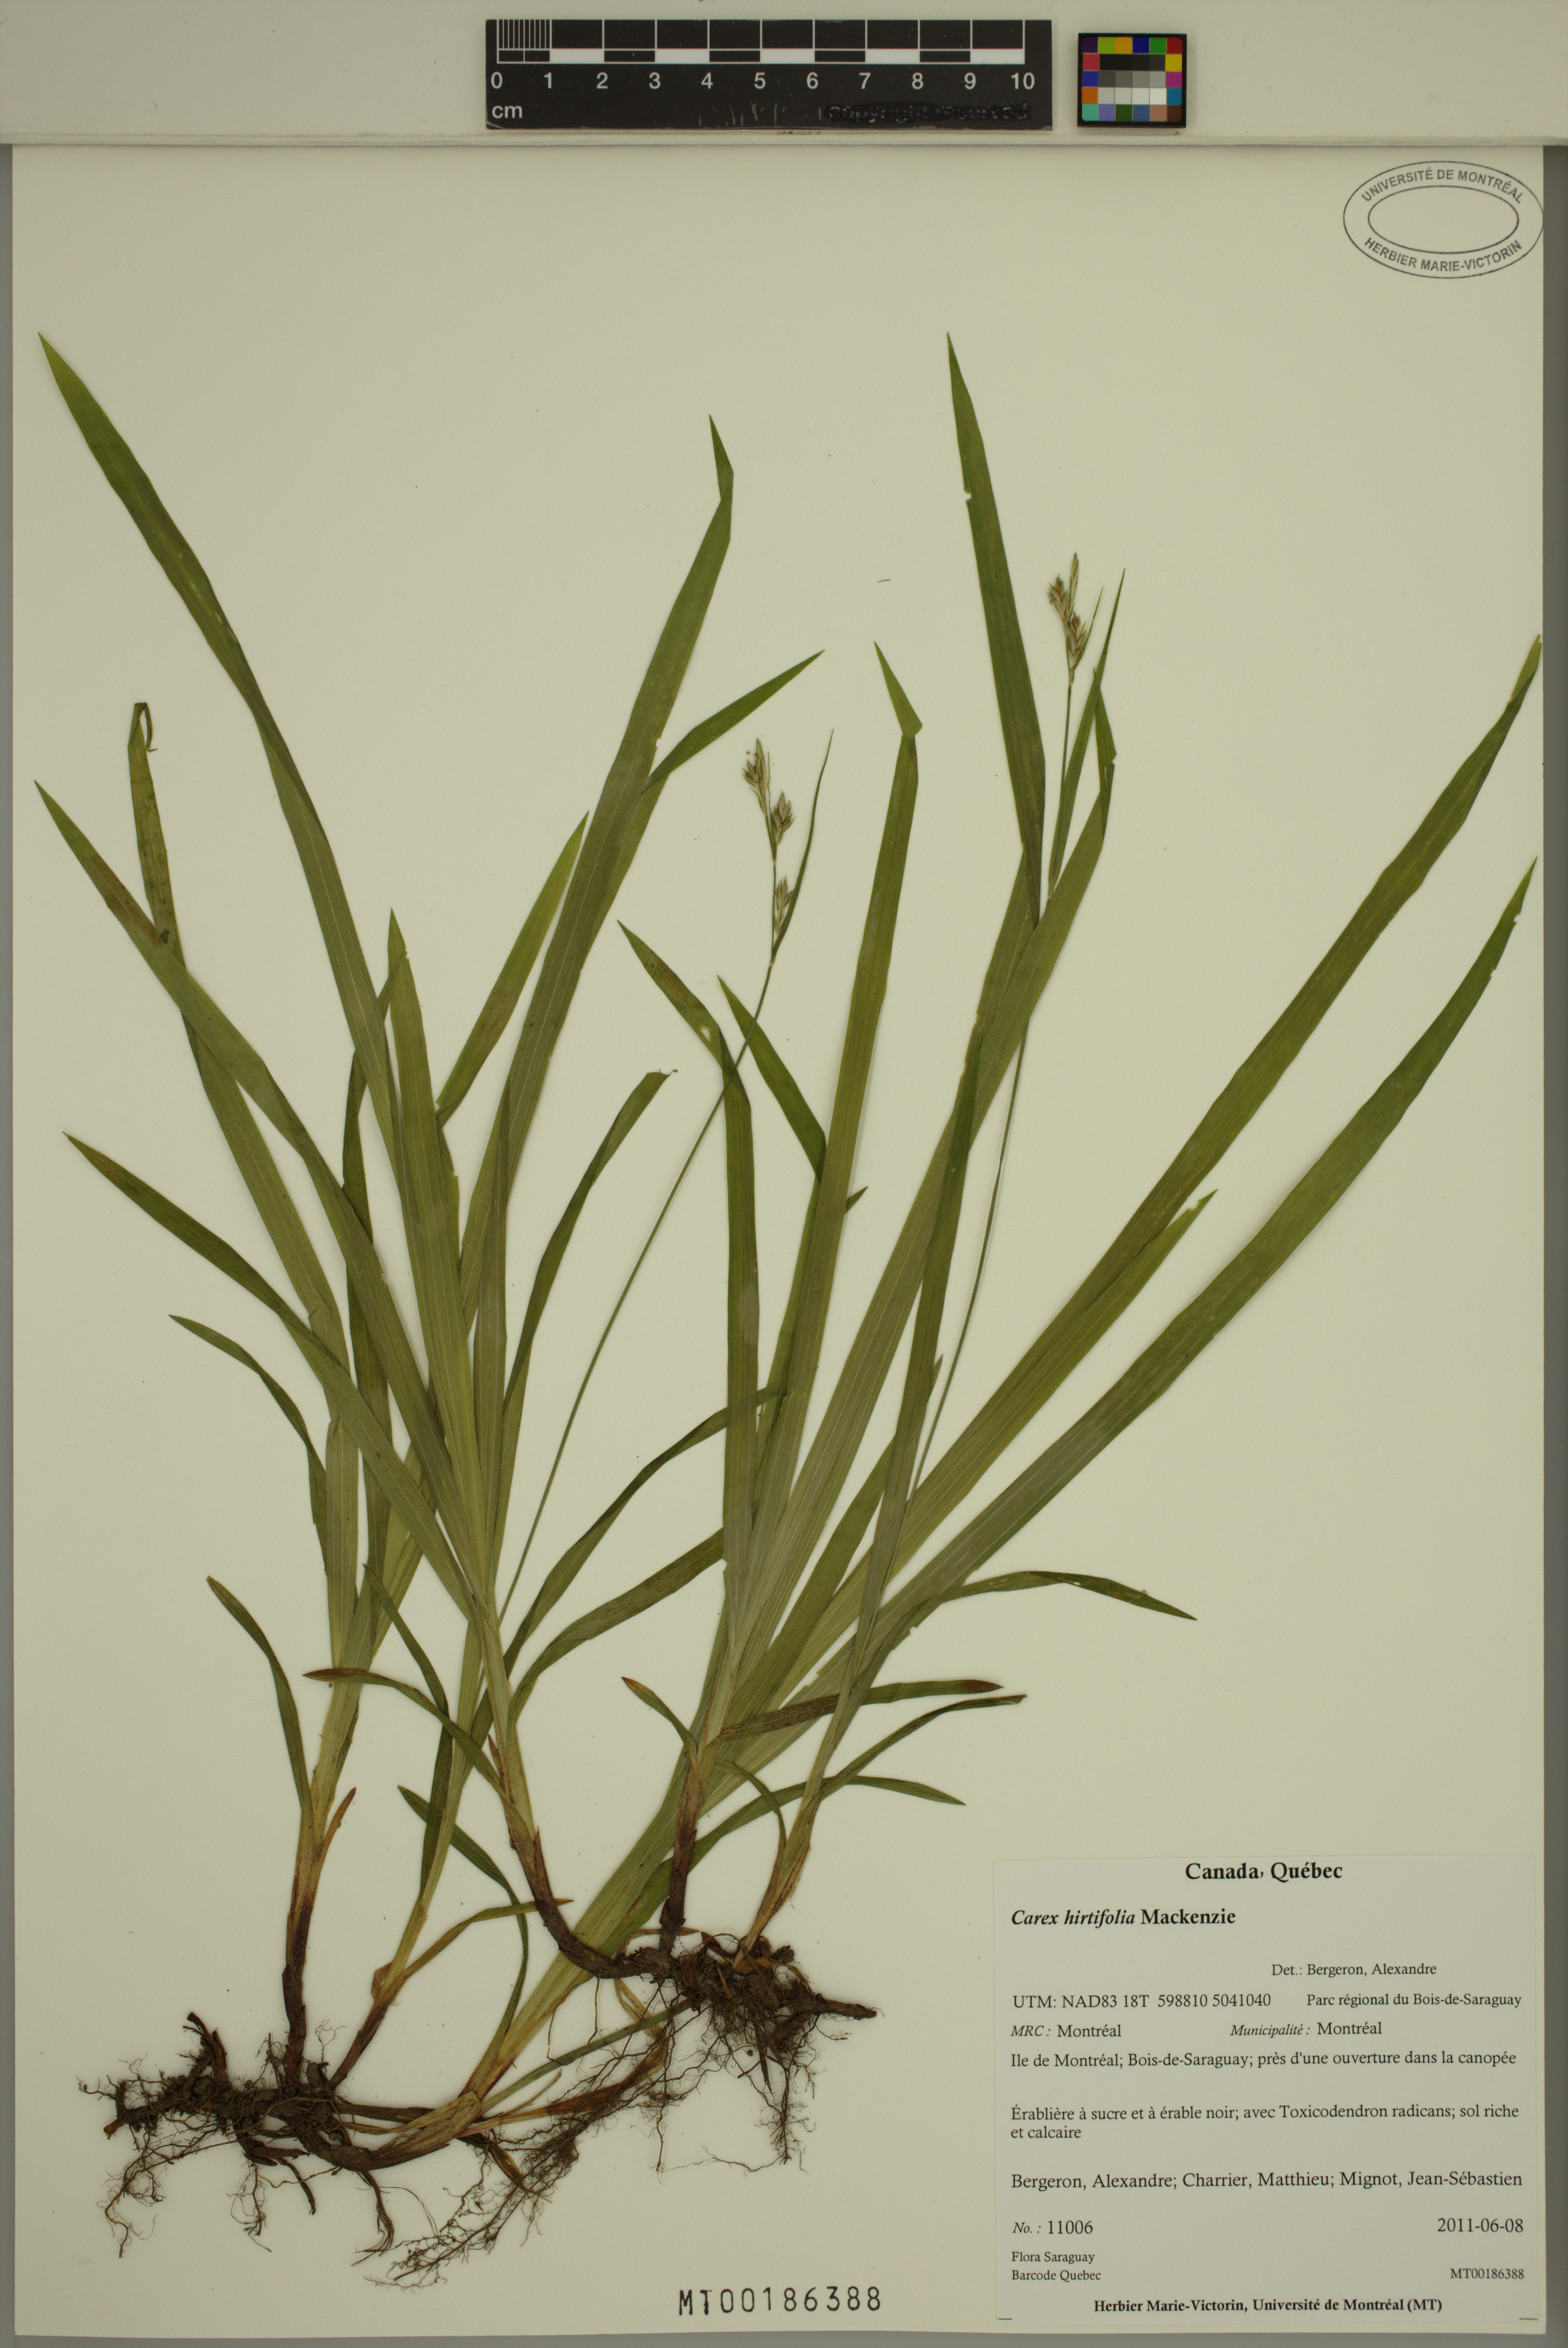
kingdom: Plantae
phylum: Tracheophyta
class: Liliopsida
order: Poales
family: Cyperaceae
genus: Carex
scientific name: Carex hirtifolia
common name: Hairy sedge
